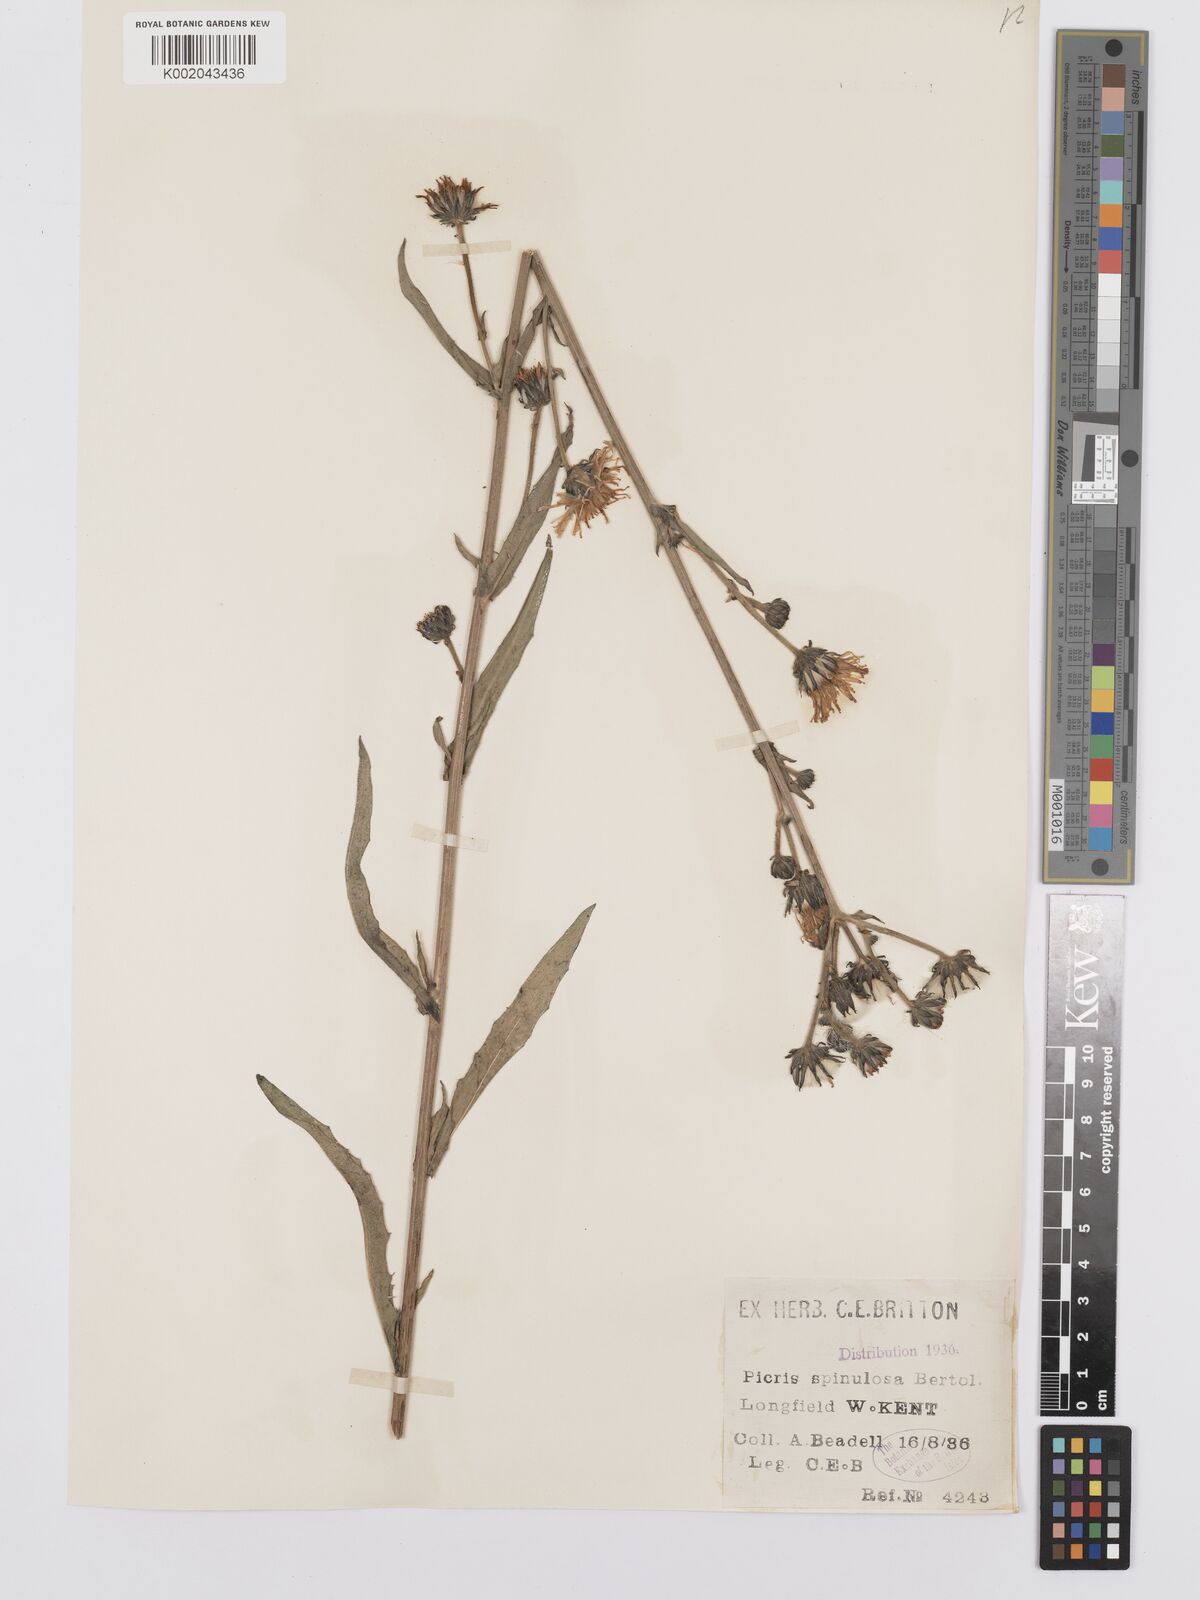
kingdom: Plantae
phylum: Tracheophyta
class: Magnoliopsida
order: Asterales
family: Asteraceae
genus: Picris
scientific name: Picris hieracioides
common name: Hawkweed oxtongue
